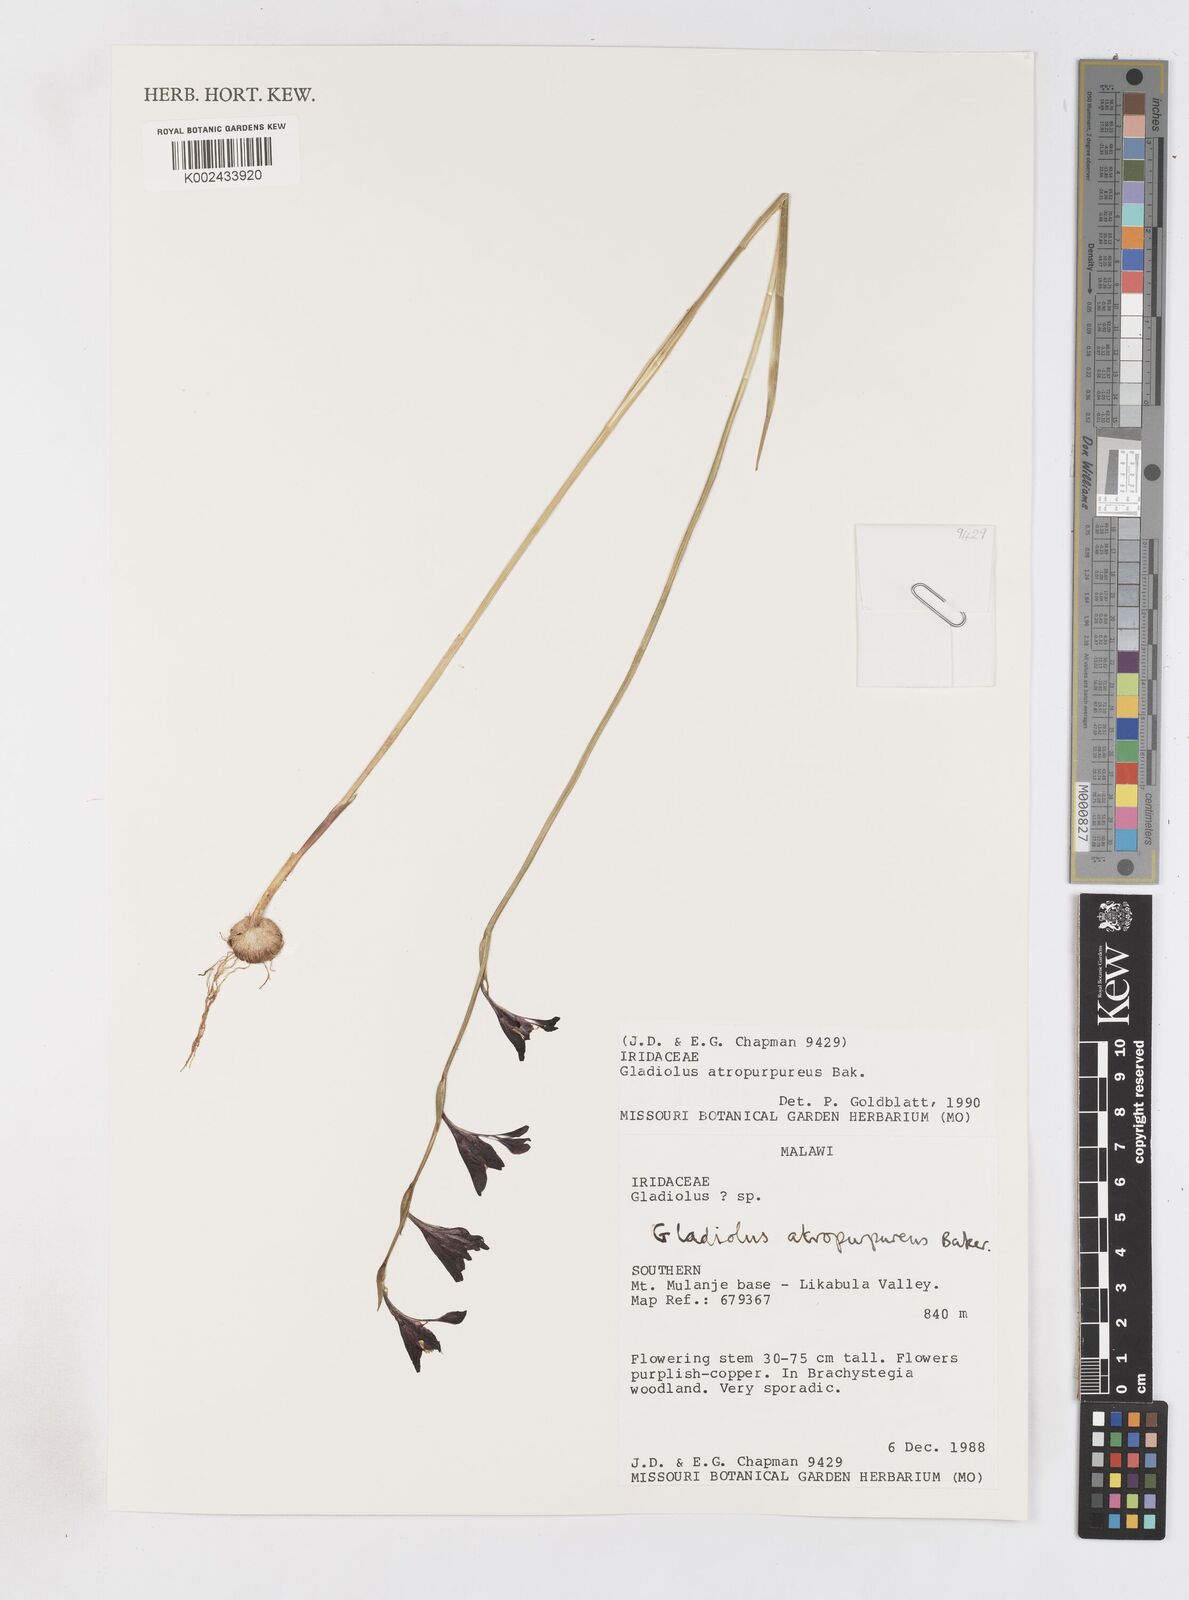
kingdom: Plantae
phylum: Tracheophyta
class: Liliopsida
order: Asparagales
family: Iridaceae
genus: Gladiolus
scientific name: Gladiolus atropurpureus
